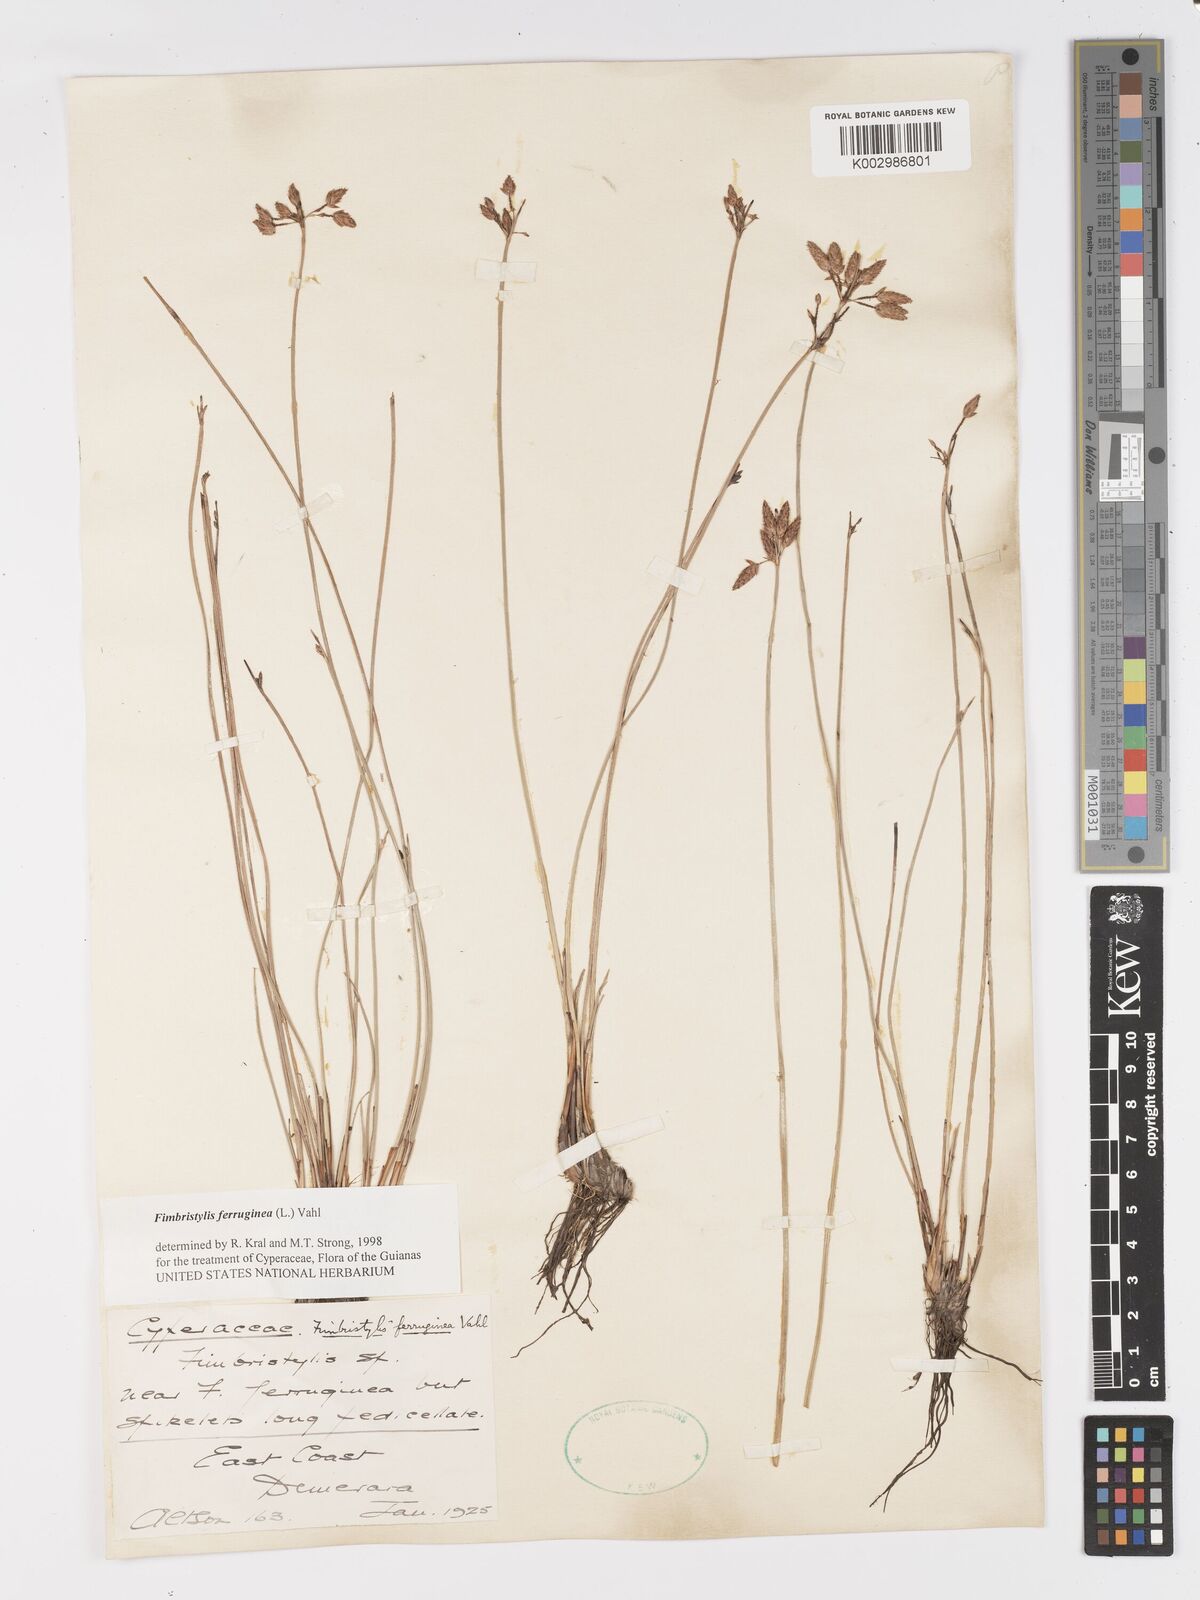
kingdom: Plantae
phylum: Tracheophyta
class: Liliopsida
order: Poales
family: Cyperaceae
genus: Fimbristylis
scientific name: Fimbristylis ferruginea
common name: West indian fimbry
